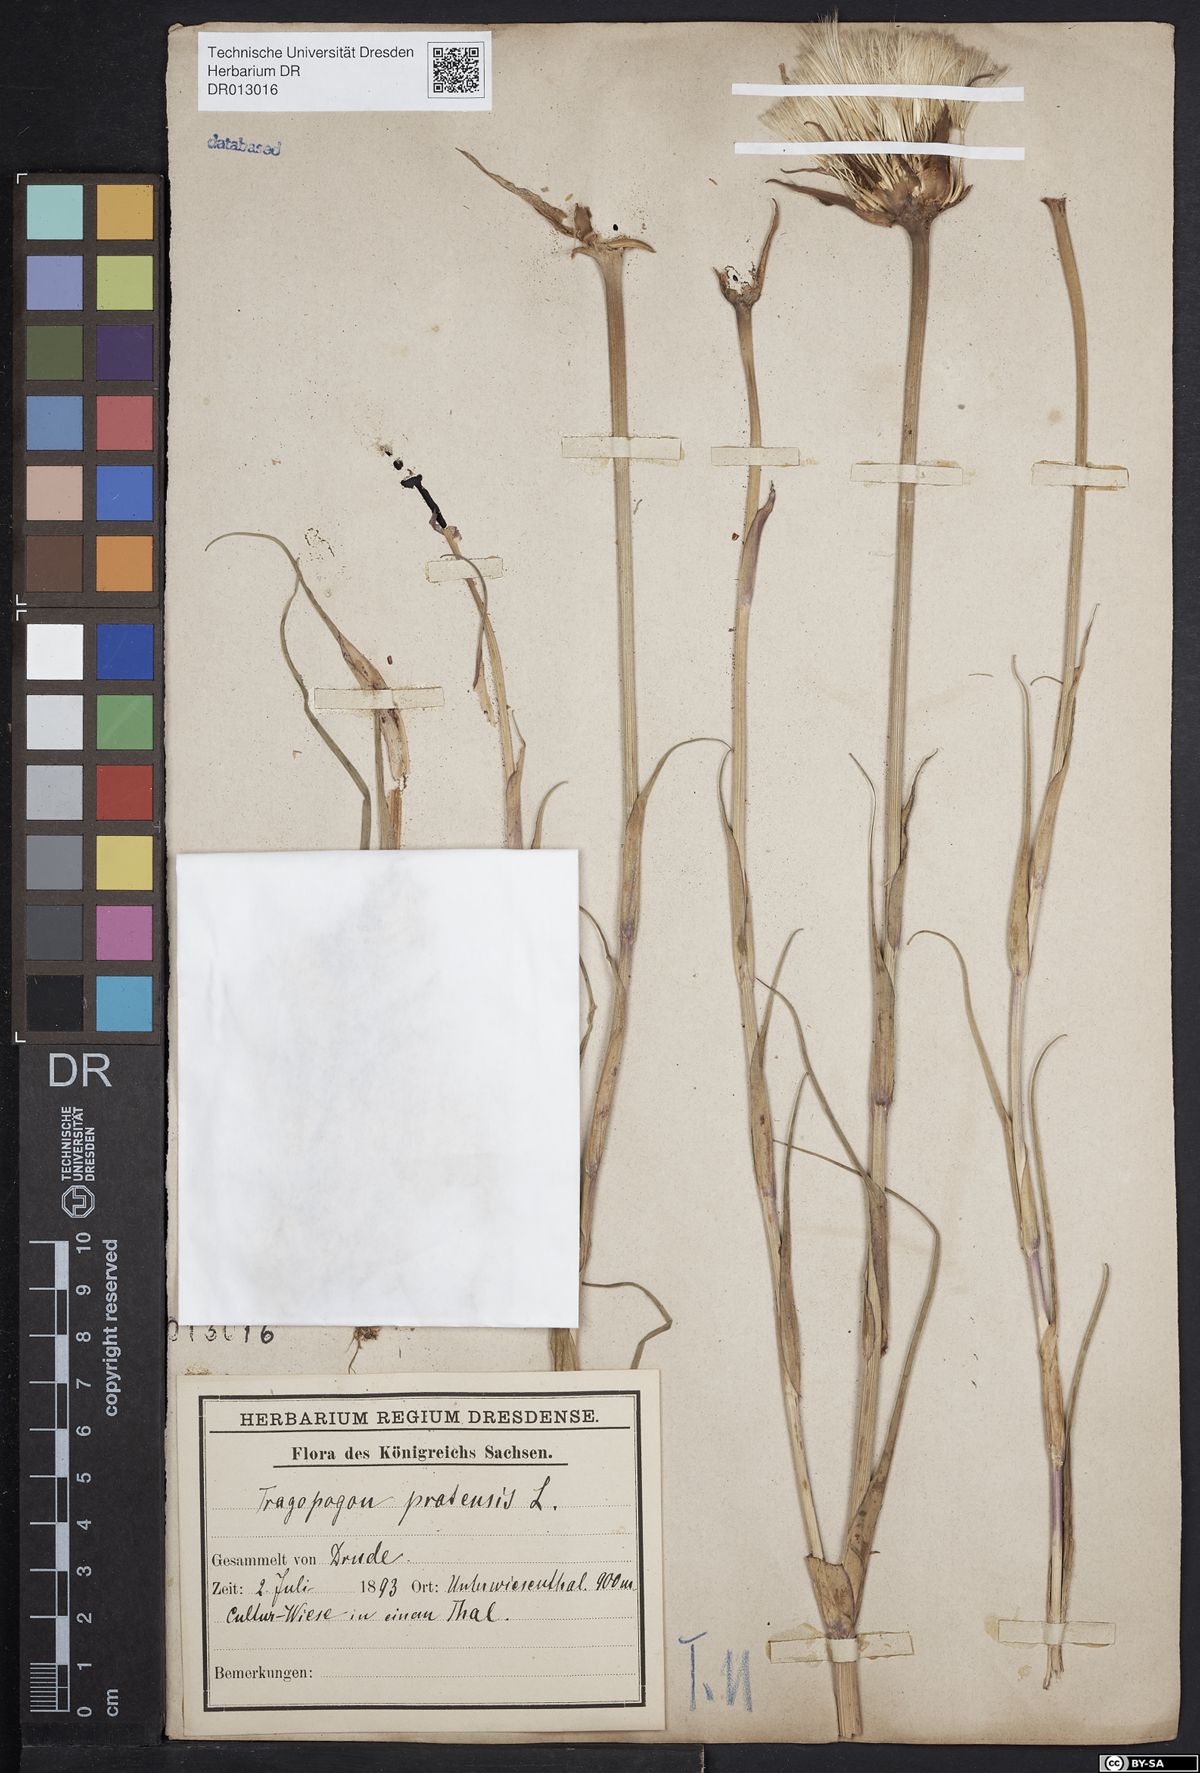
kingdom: Plantae
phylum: Tracheophyta
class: Magnoliopsida
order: Asterales
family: Asteraceae
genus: Tragopogon
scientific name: Tragopogon pratensis
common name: Goat's-beard
